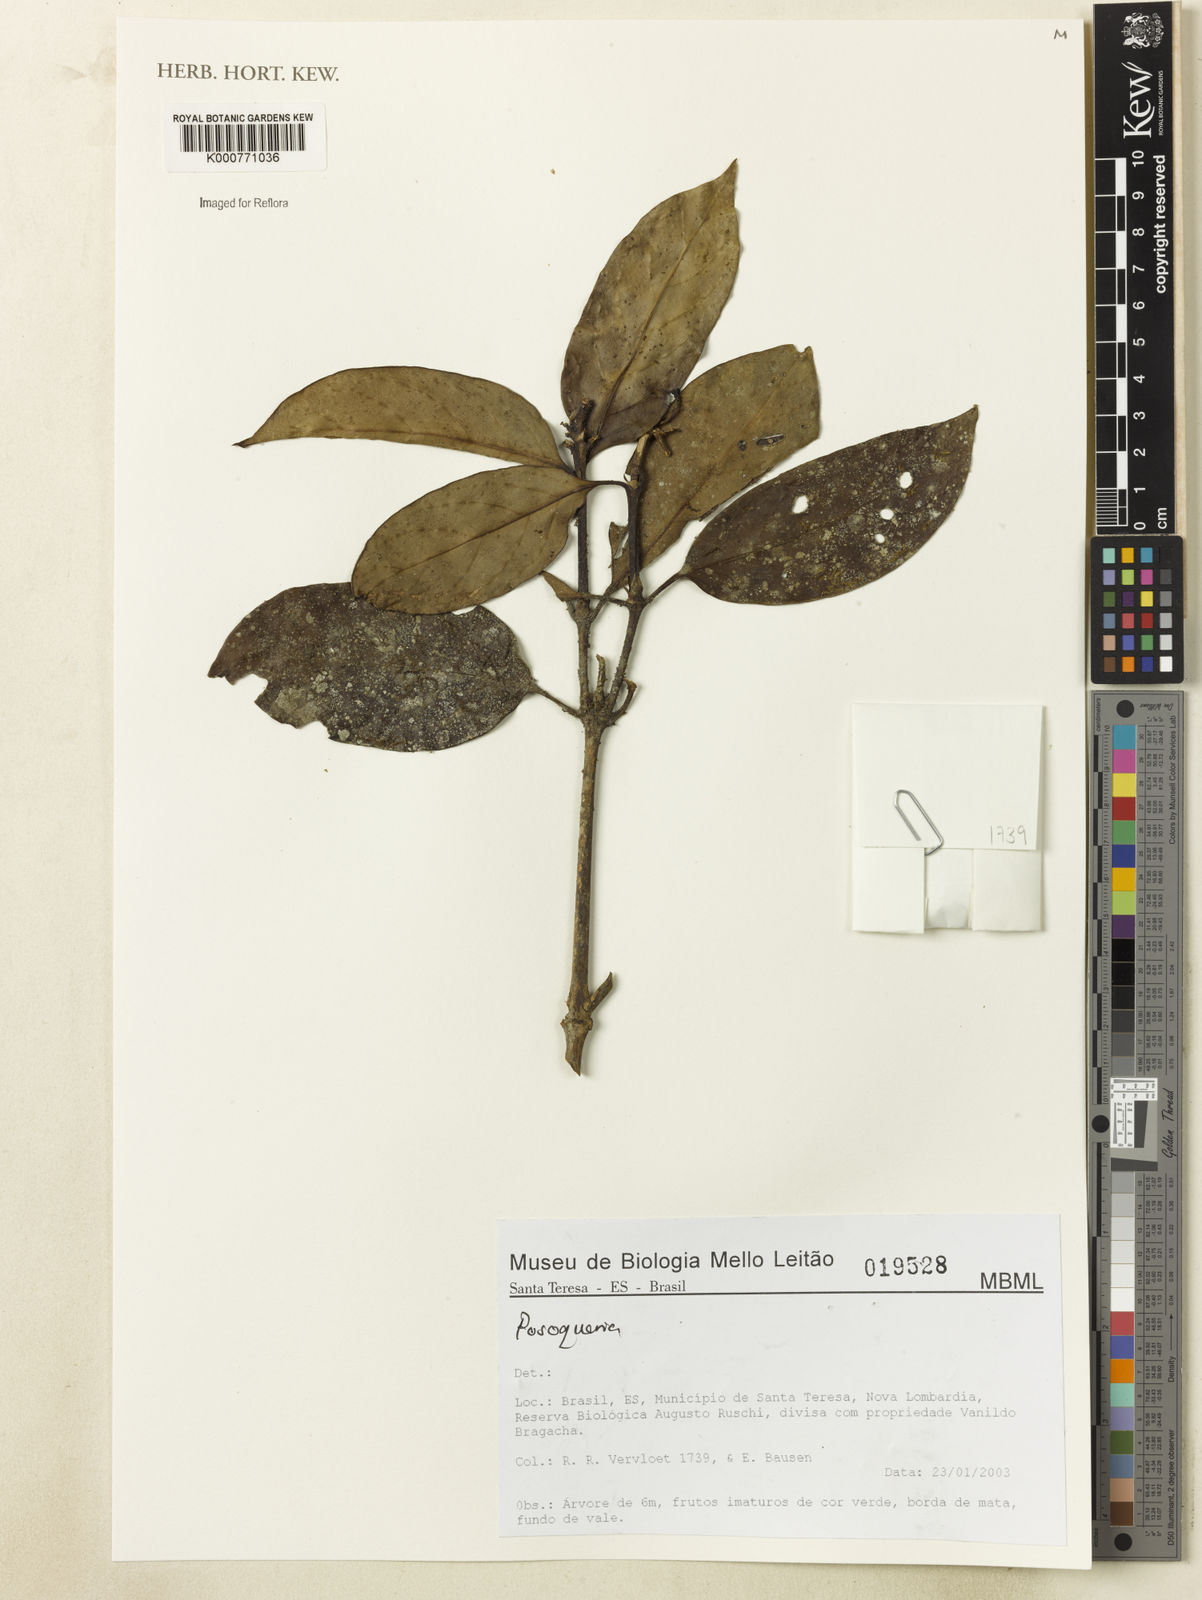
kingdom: Plantae
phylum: Tracheophyta
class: Magnoliopsida
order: Gentianales
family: Rubiaceae
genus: Posoqueria
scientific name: Posoqueria
